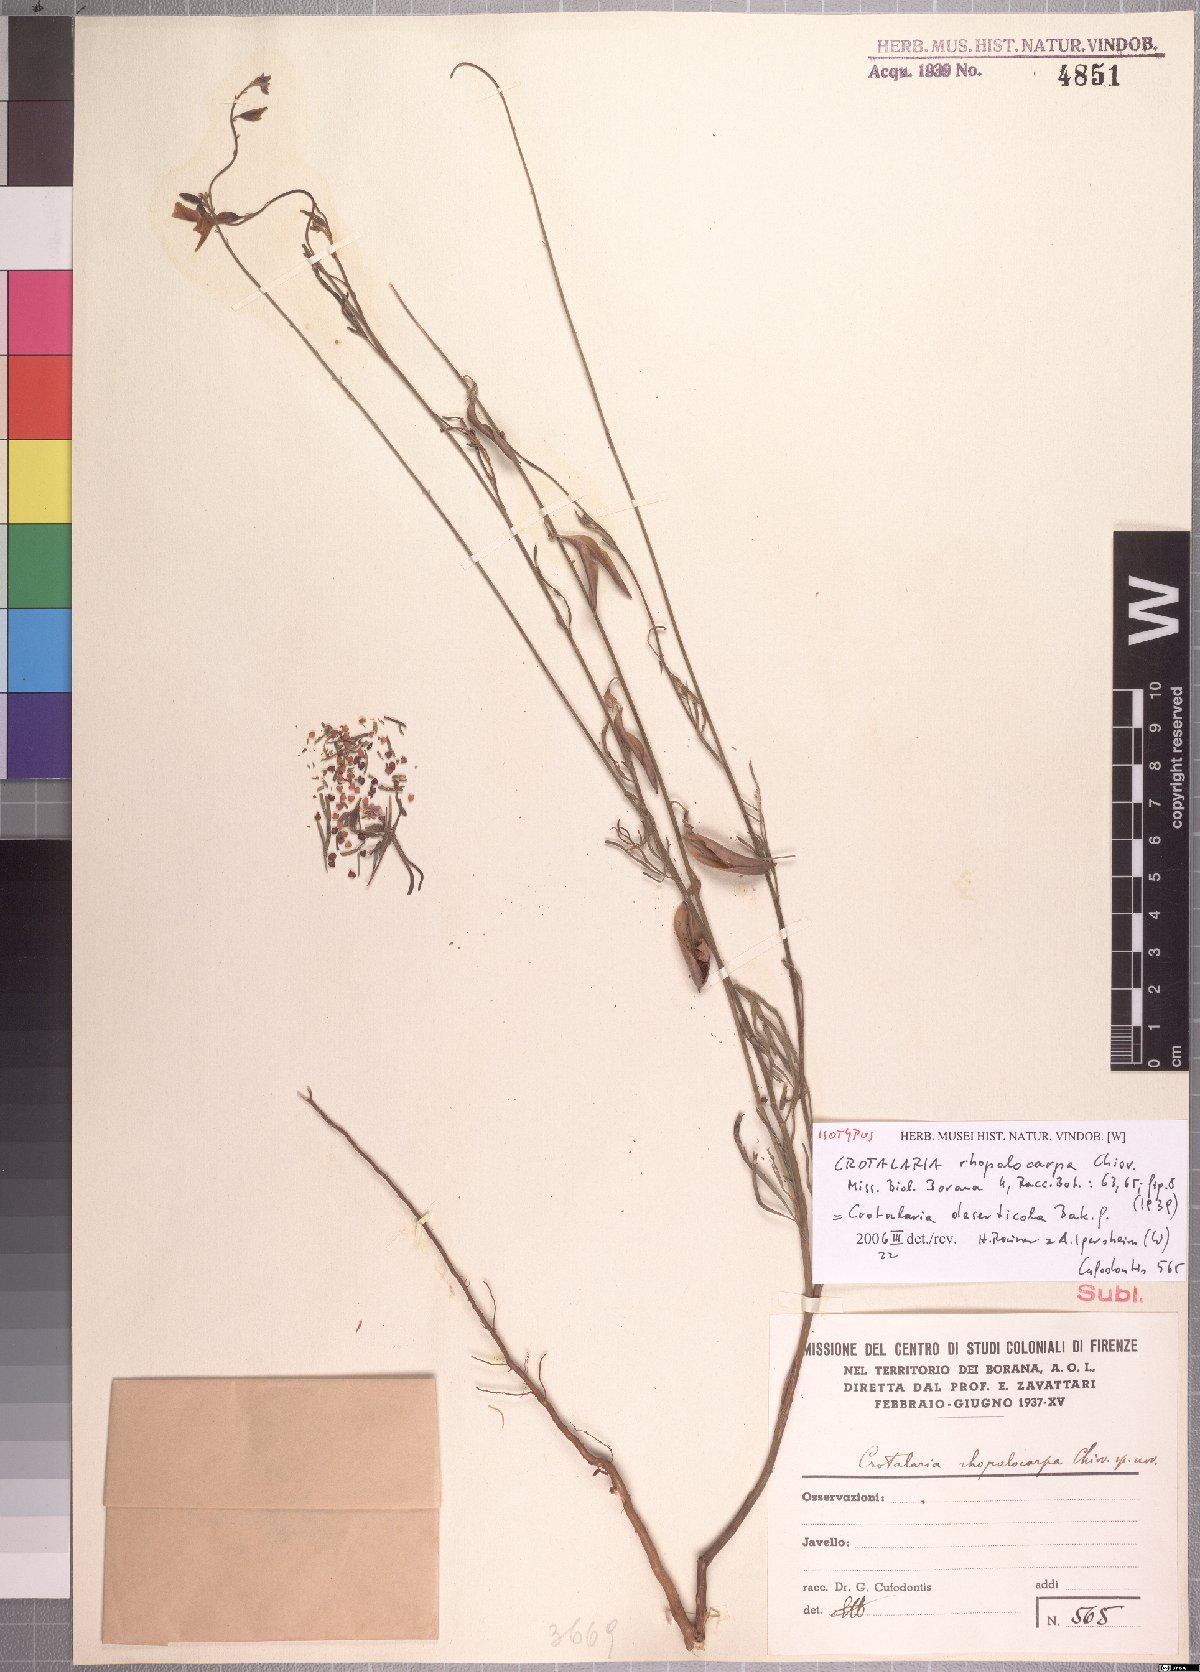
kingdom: Plantae
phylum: Tracheophyta
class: Magnoliopsida
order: Fabales
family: Fabaceae
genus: Crotalaria
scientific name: Crotalaria deserticola
